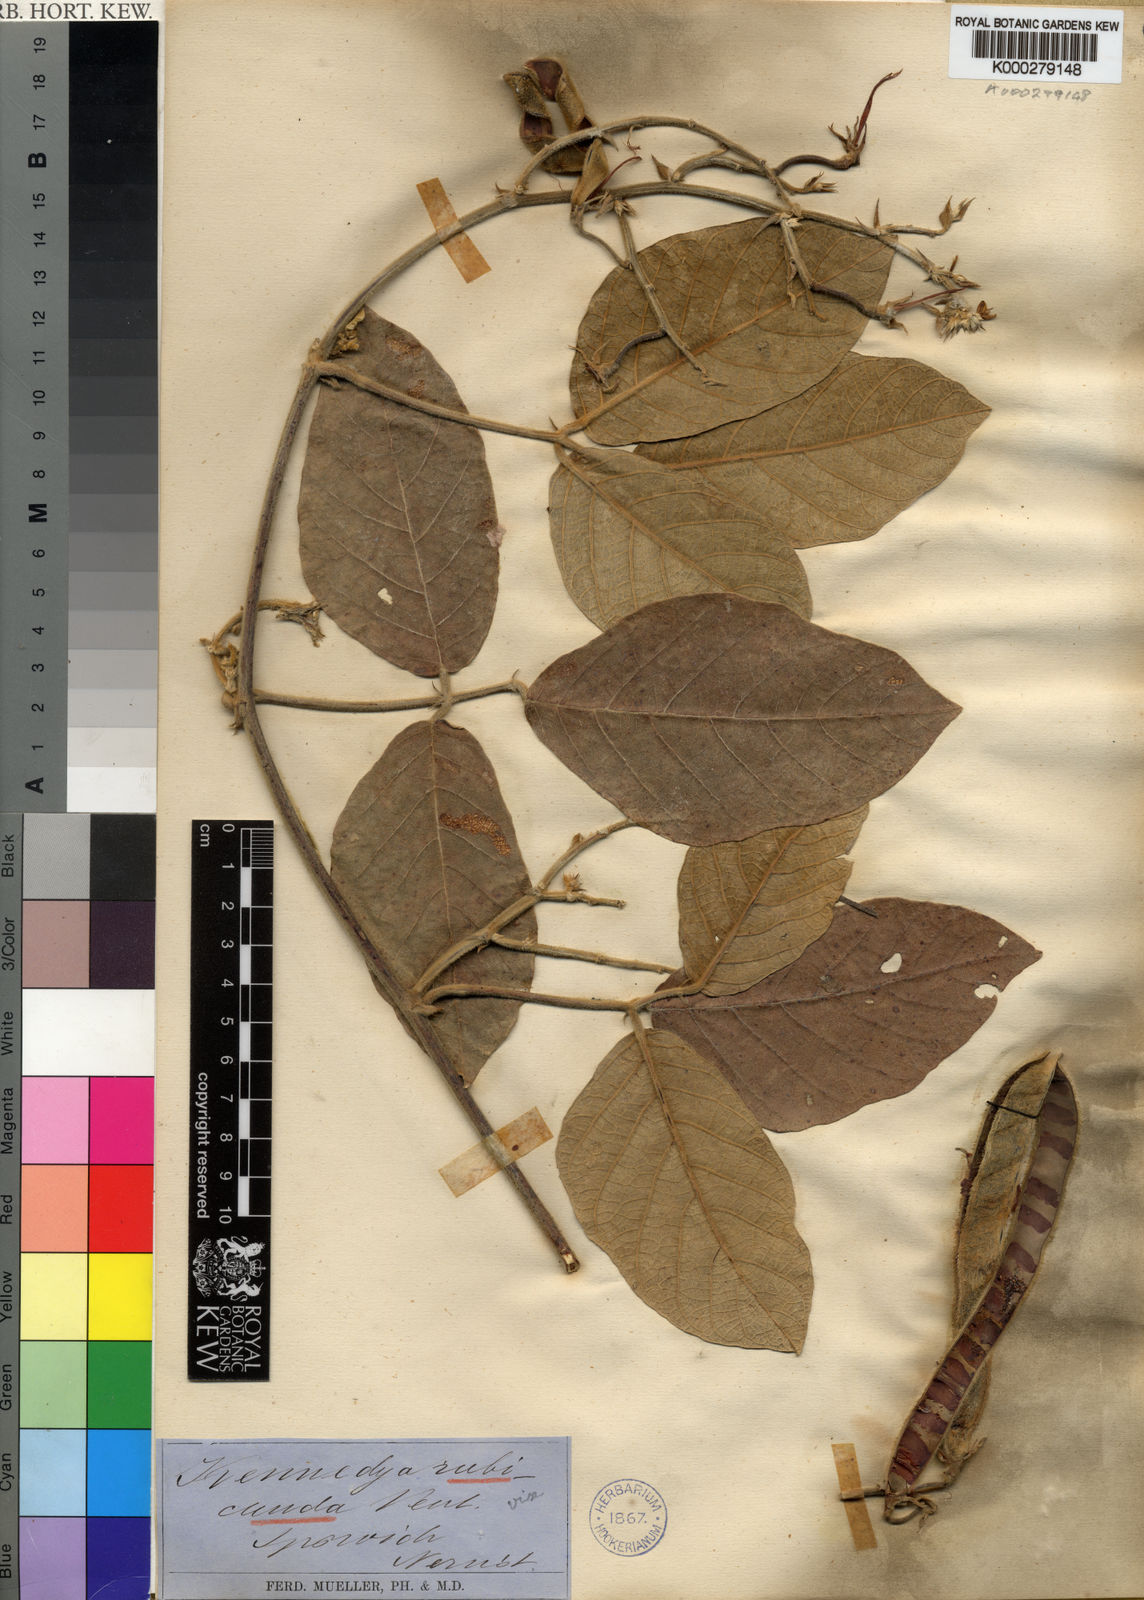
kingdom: Plantae
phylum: Tracheophyta
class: Magnoliopsida
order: Fabales
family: Fabaceae
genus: Kennedia
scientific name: Kennedia rubicunda
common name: Red kennedy-pea
